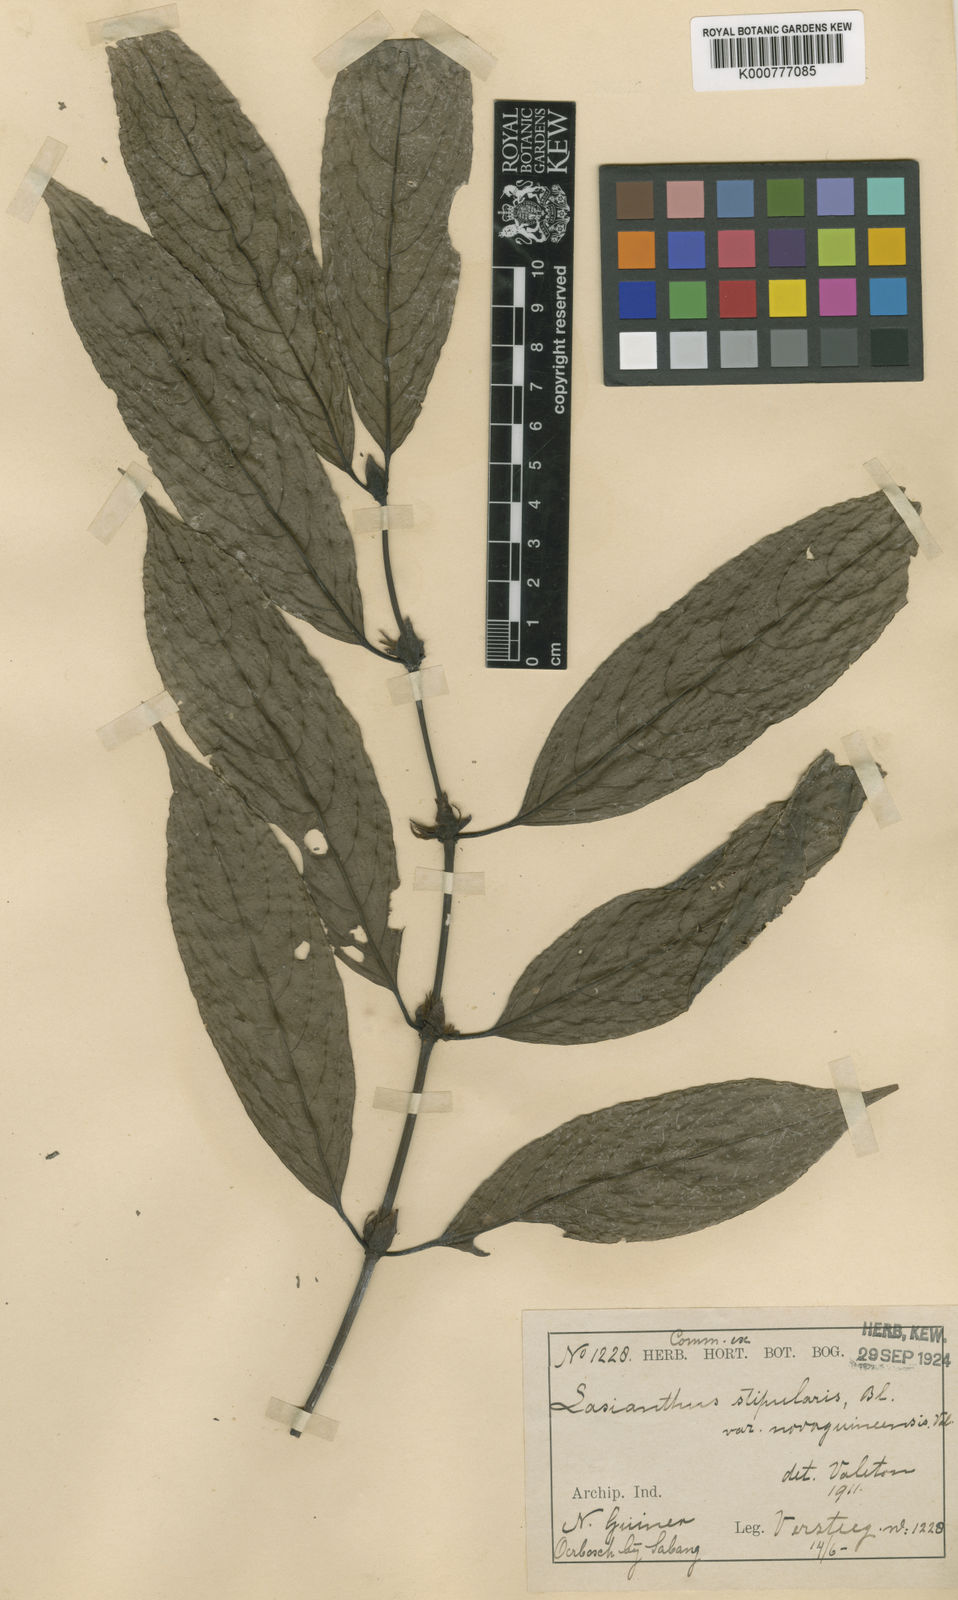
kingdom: Plantae
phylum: Tracheophyta
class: Magnoliopsida
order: Gentianales
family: Rubiaceae
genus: Lasianthus
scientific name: Lasianthus stipularis
